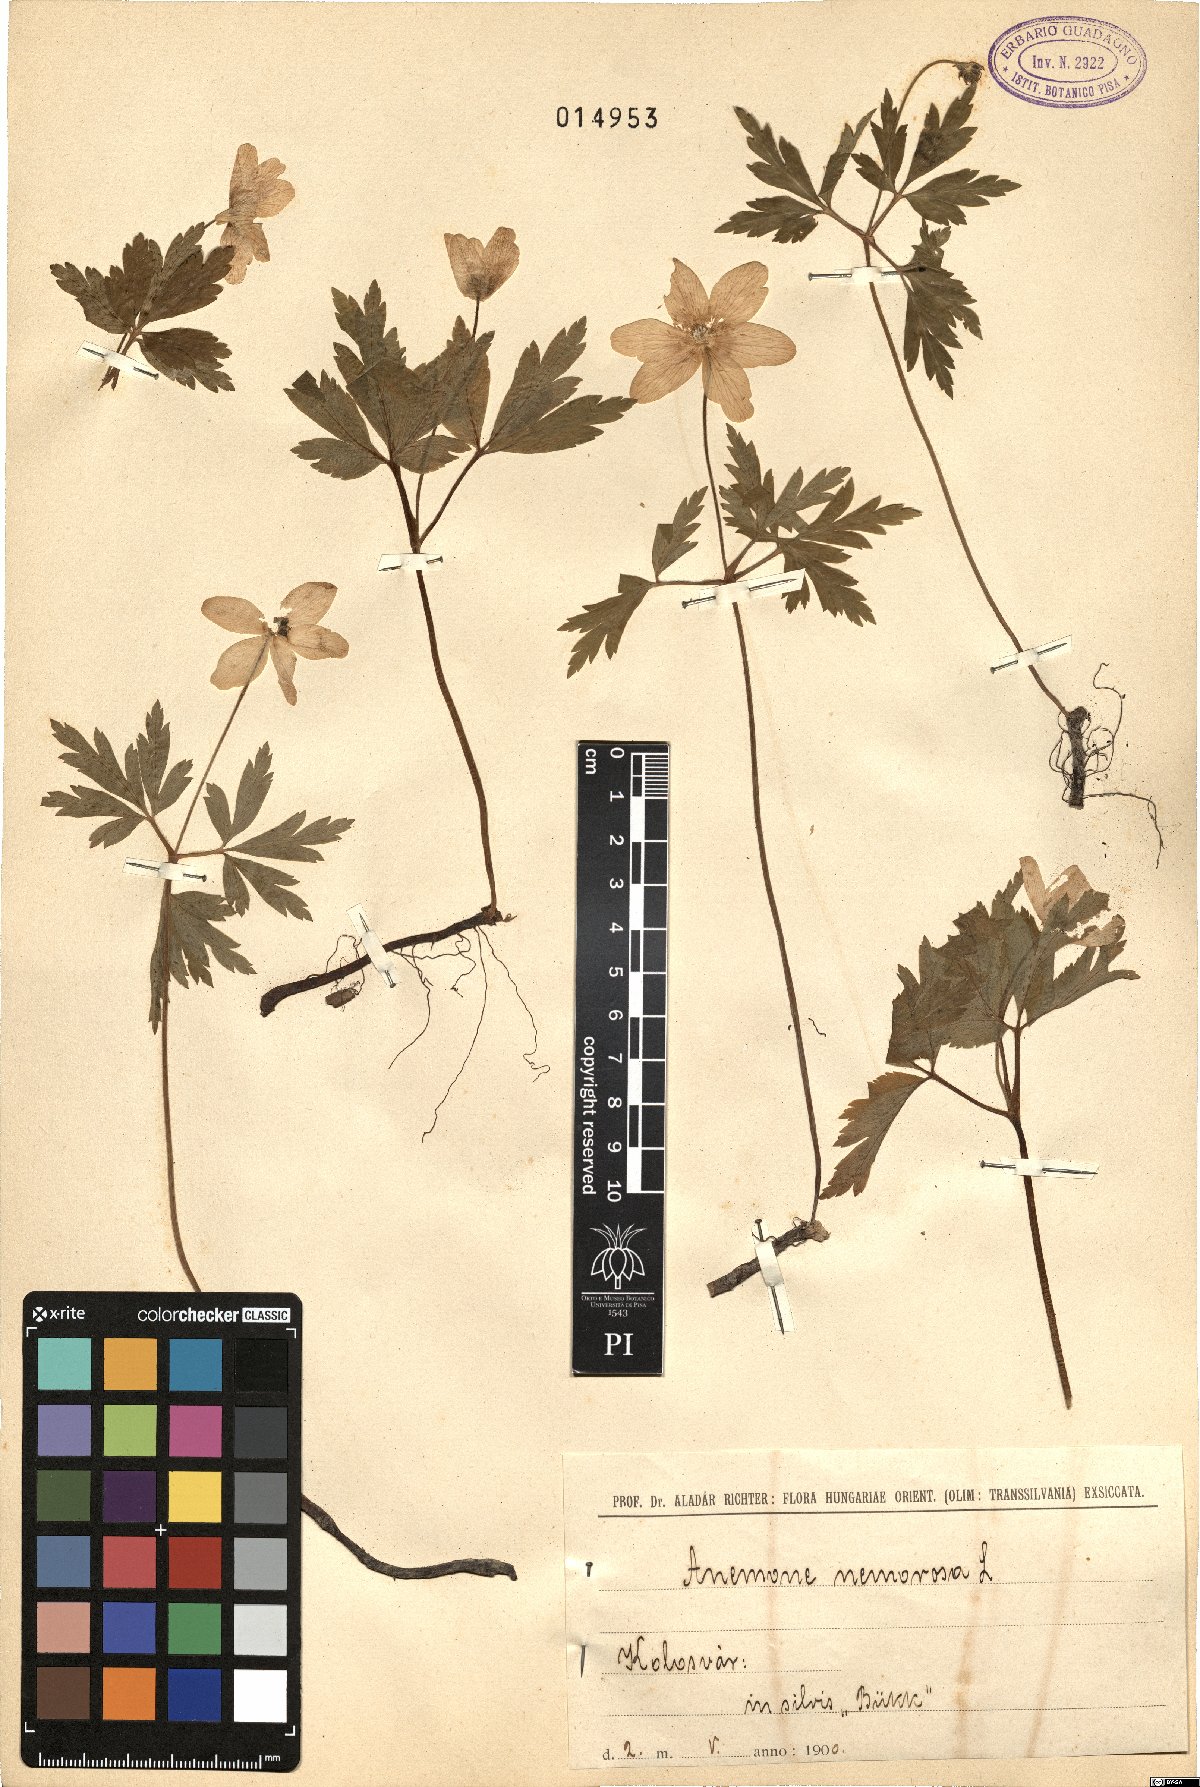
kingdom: Plantae
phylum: Tracheophyta
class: Magnoliopsida
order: Ranunculales
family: Ranunculaceae
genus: Anemone
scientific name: Anemone nemorosa
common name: Wood anemone
